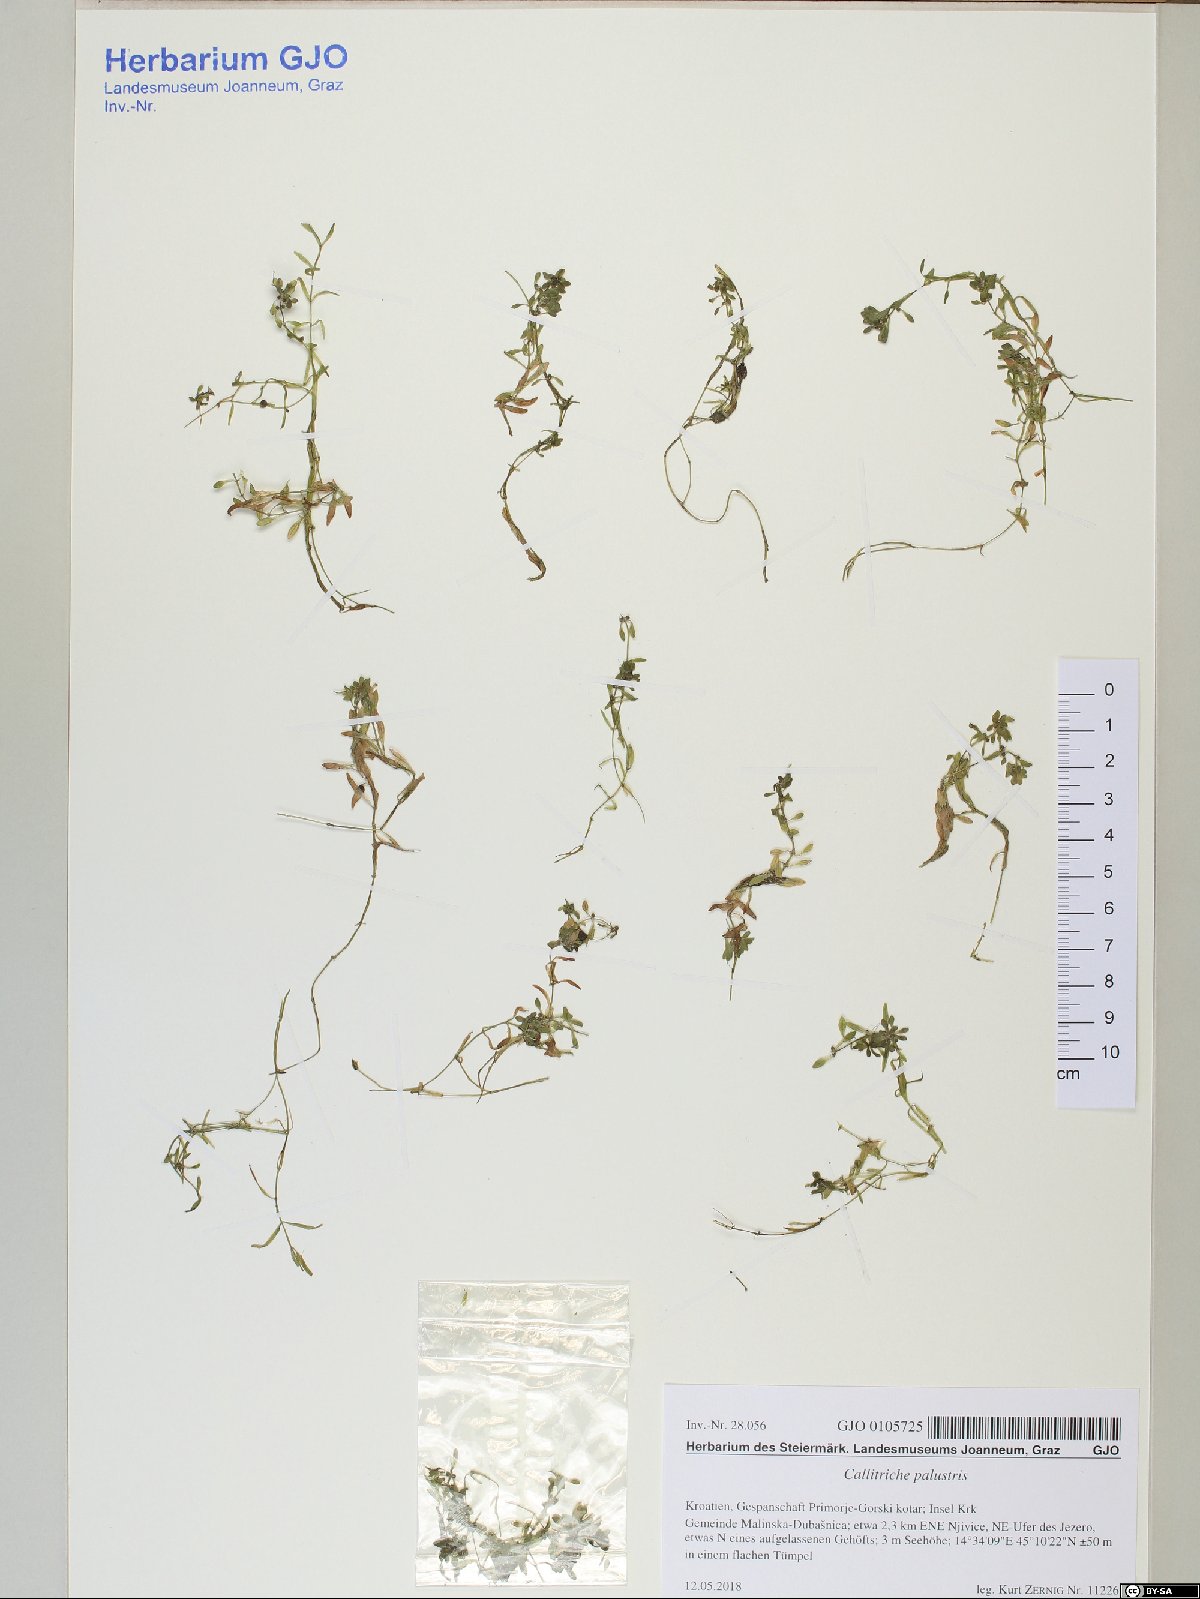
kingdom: Plantae
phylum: Tracheophyta
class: Magnoliopsida
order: Lamiales
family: Plantaginaceae
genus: Callitriche
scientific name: Callitriche obtusangula
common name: Blunt-fruited water-starwort
